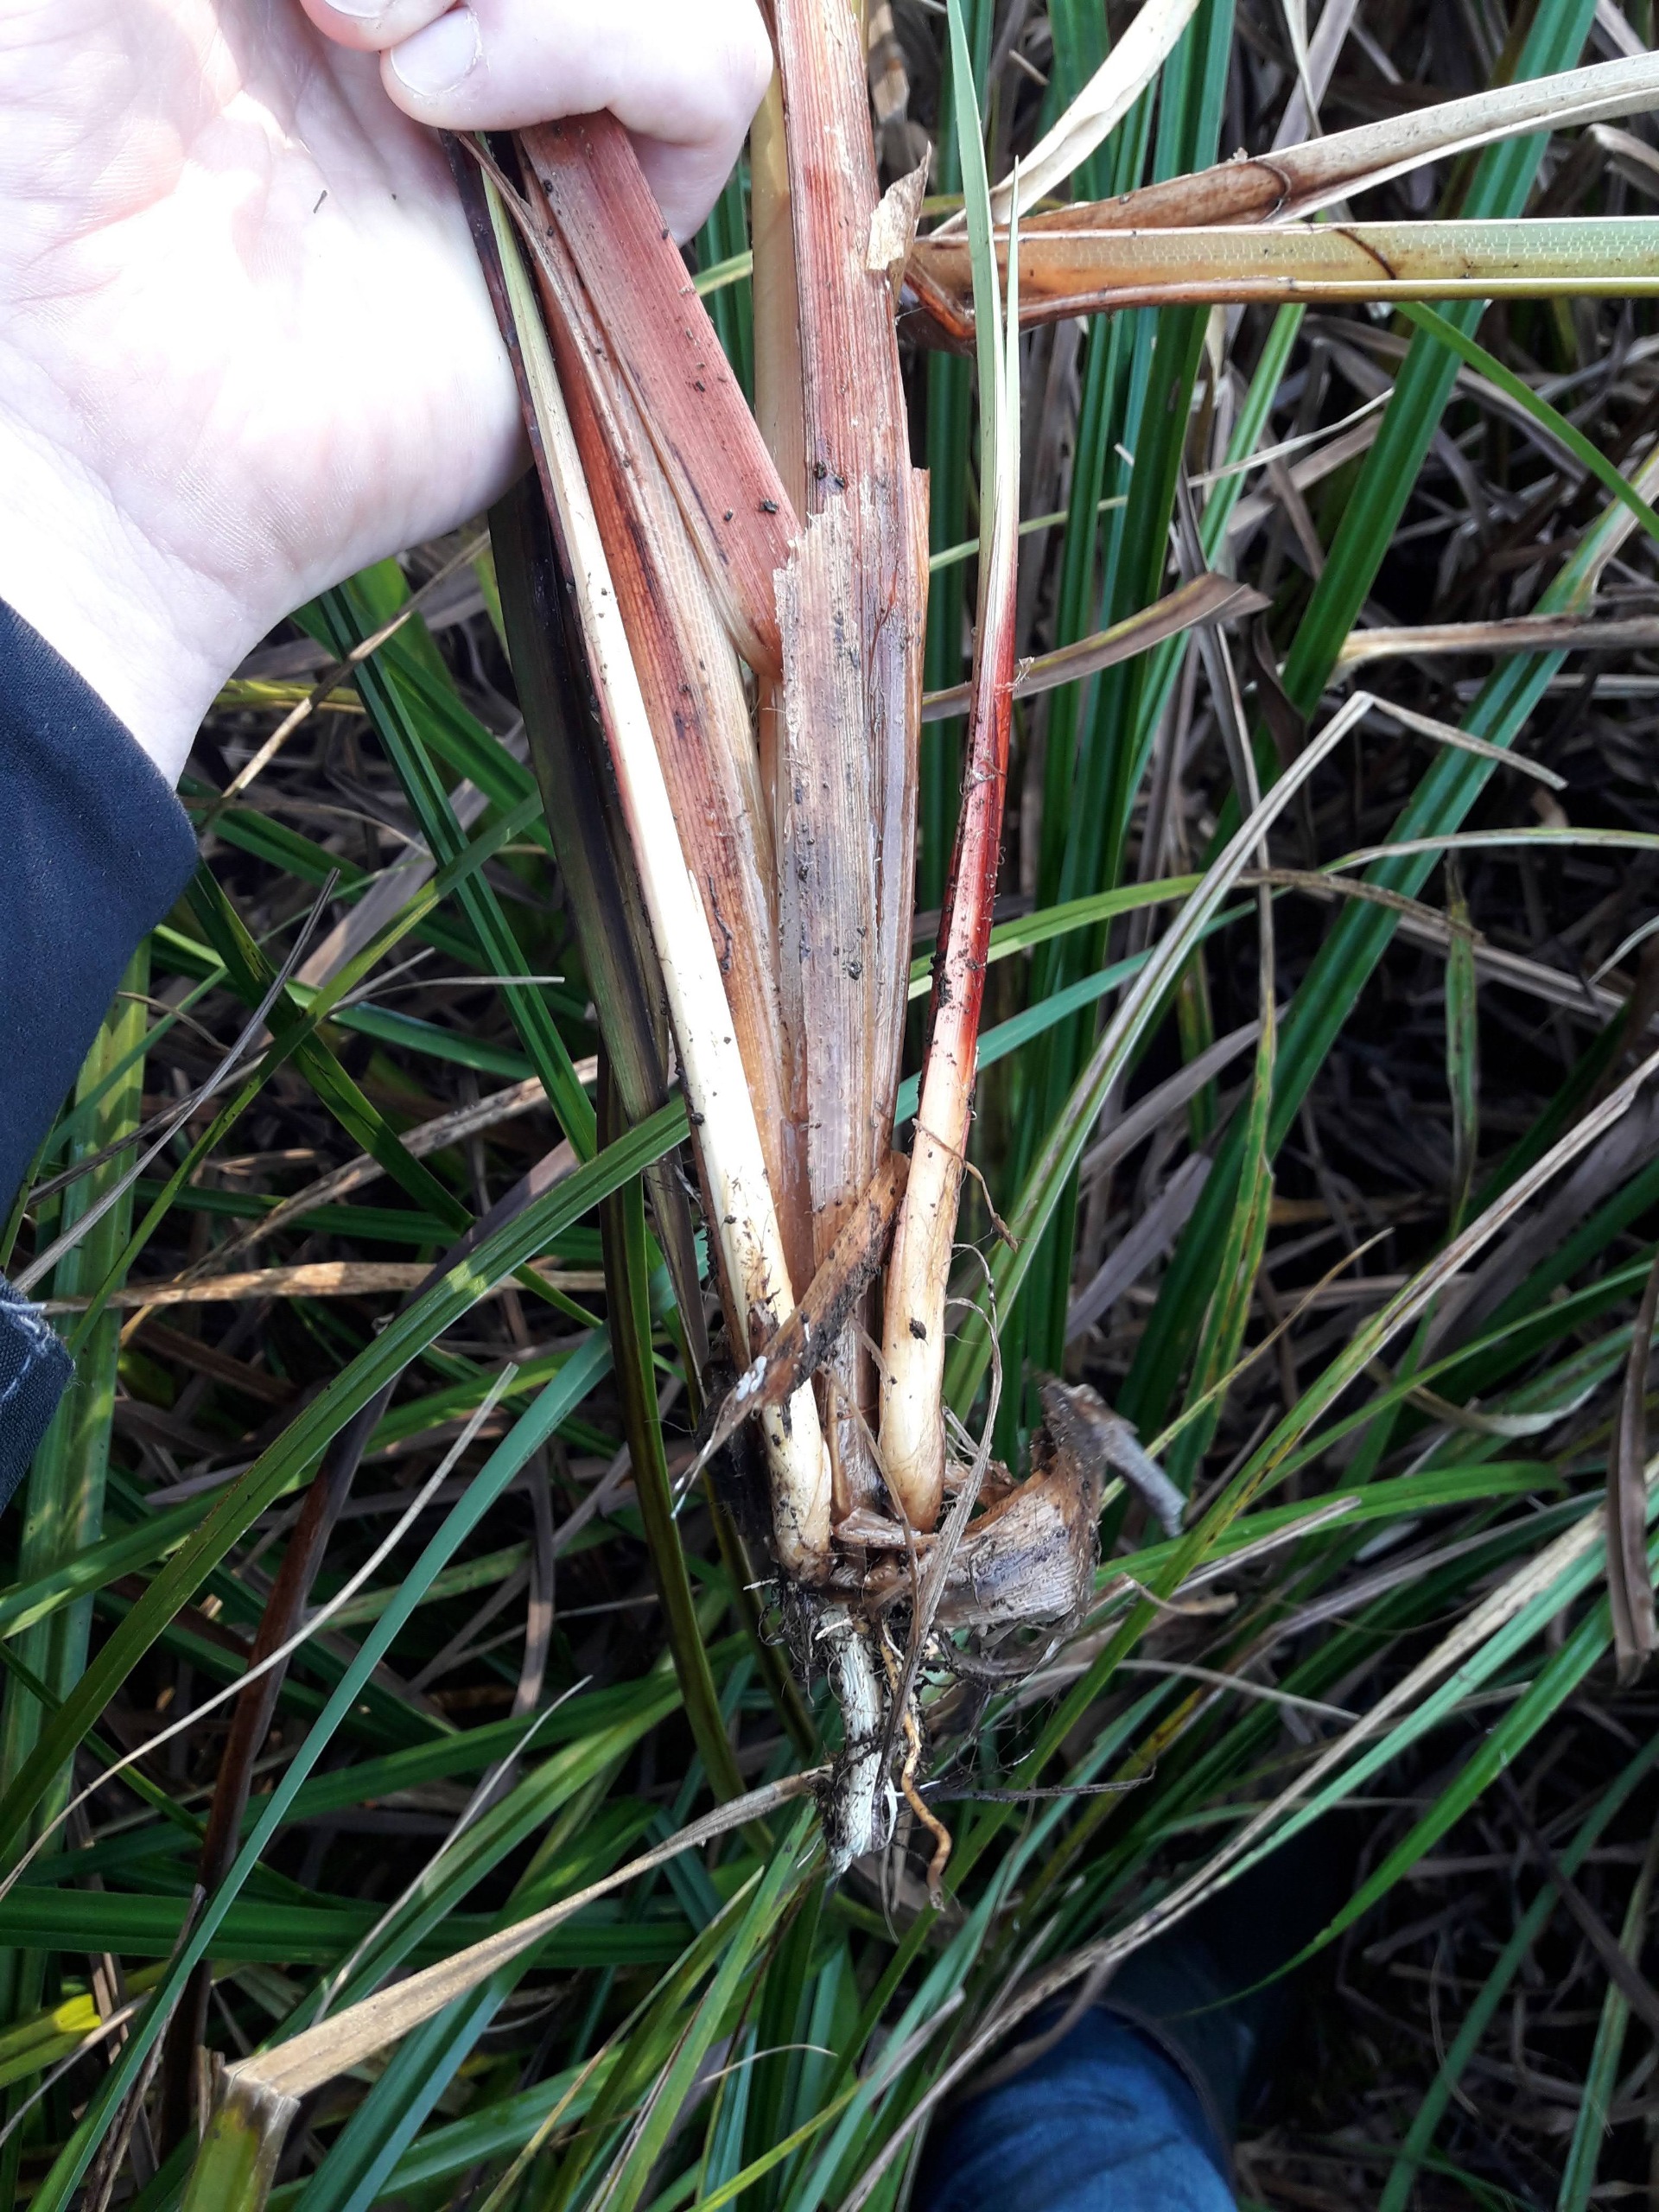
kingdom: Plantae
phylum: Tracheophyta
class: Liliopsida
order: Poales
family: Cyperaceae
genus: Carex
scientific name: Carex riparia
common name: Tykakset star
